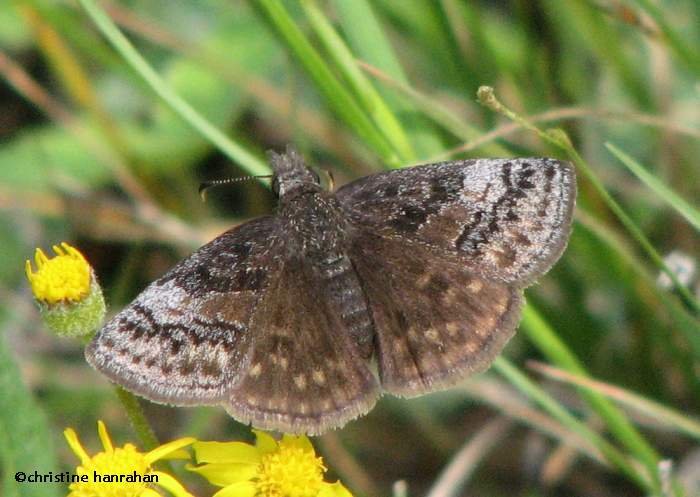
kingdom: Animalia
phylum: Arthropoda
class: Insecta
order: Lepidoptera
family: Hesperiidae
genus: Erynnis
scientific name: Erynnis icelus
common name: Dreamy Duskywing
